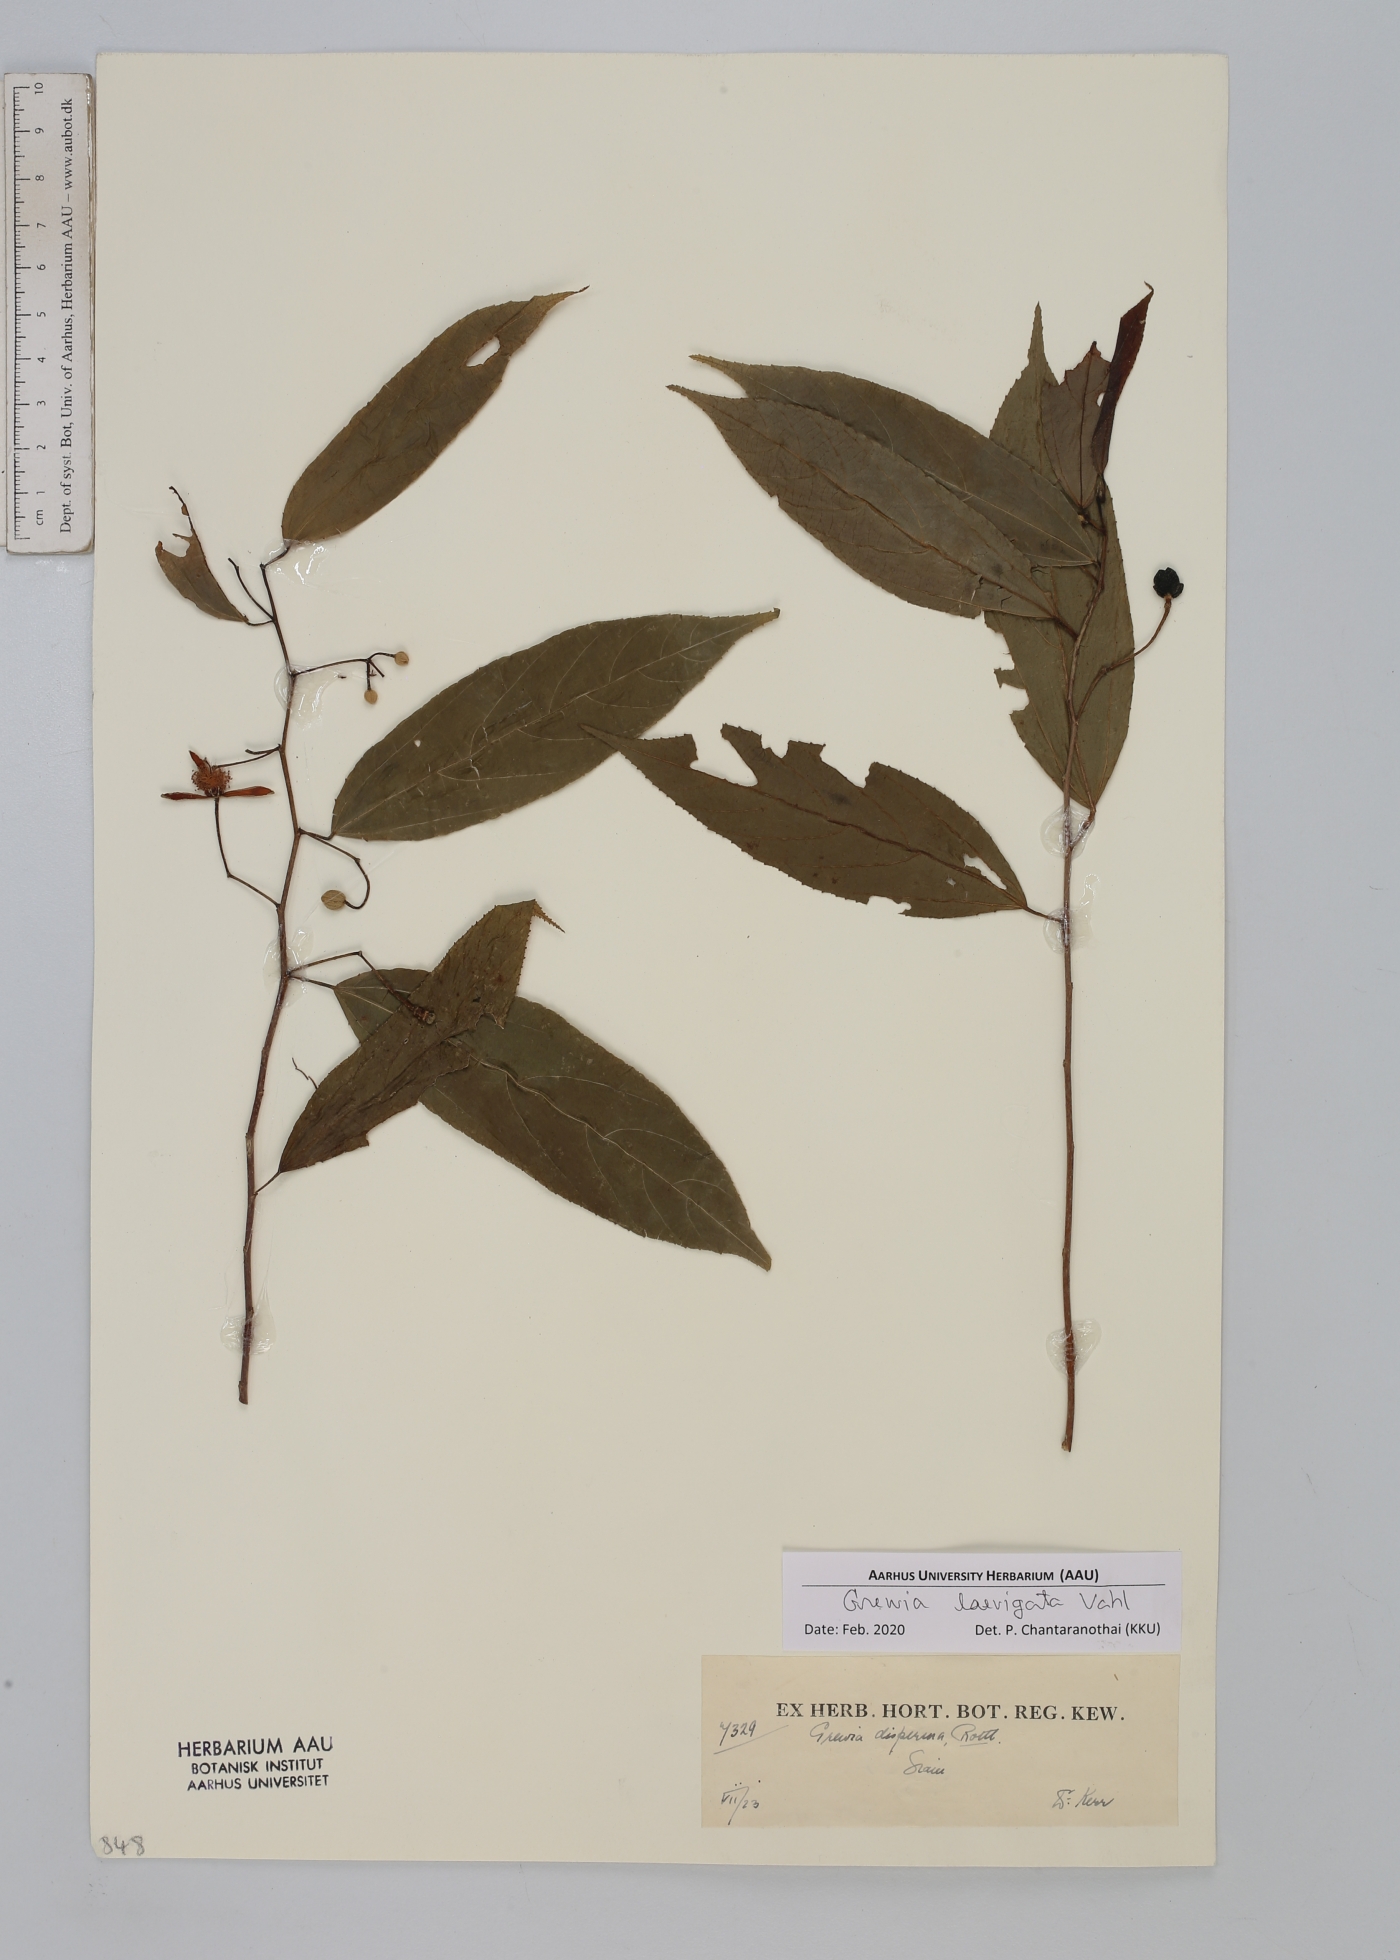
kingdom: Plantae
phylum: Tracheophyta
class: Magnoliopsida
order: Malvales
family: Malvaceae
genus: Grewia
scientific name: Grewia laevigata
